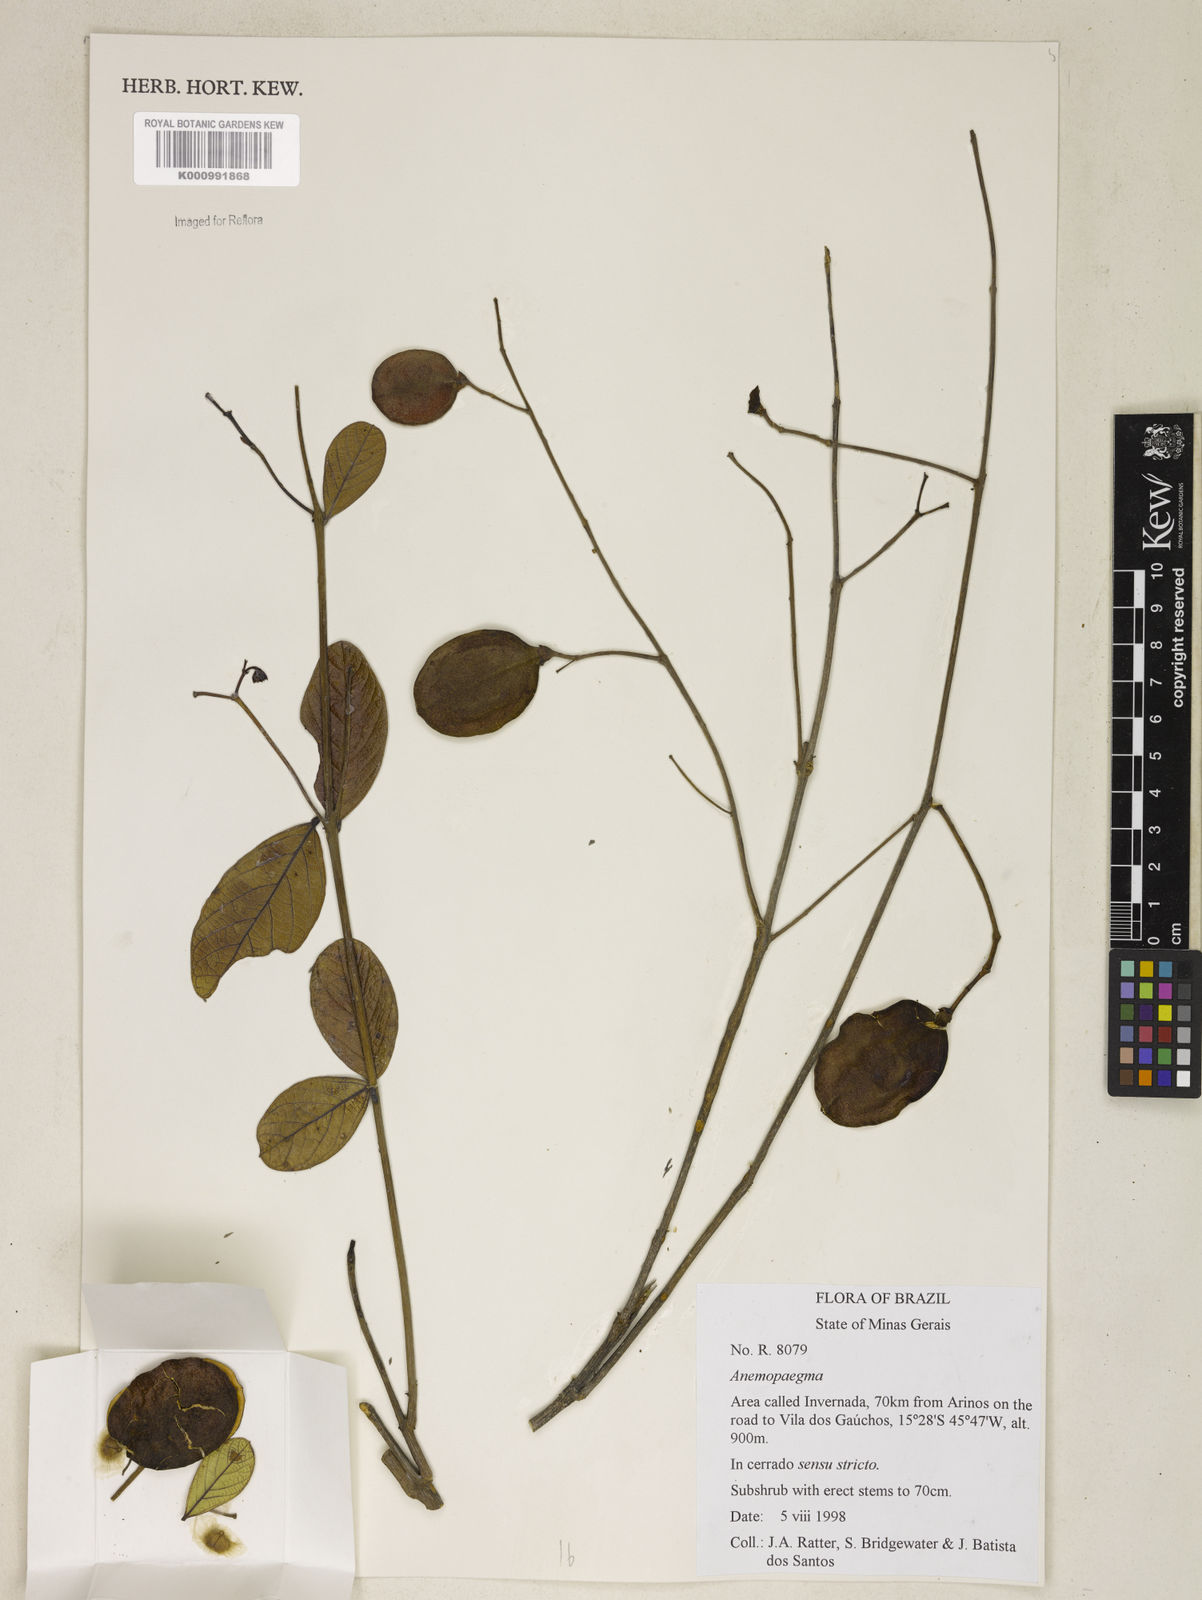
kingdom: Plantae
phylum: Tracheophyta
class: Magnoliopsida
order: Lamiales
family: Bignoniaceae
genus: Jacaranda
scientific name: Jacaranda
